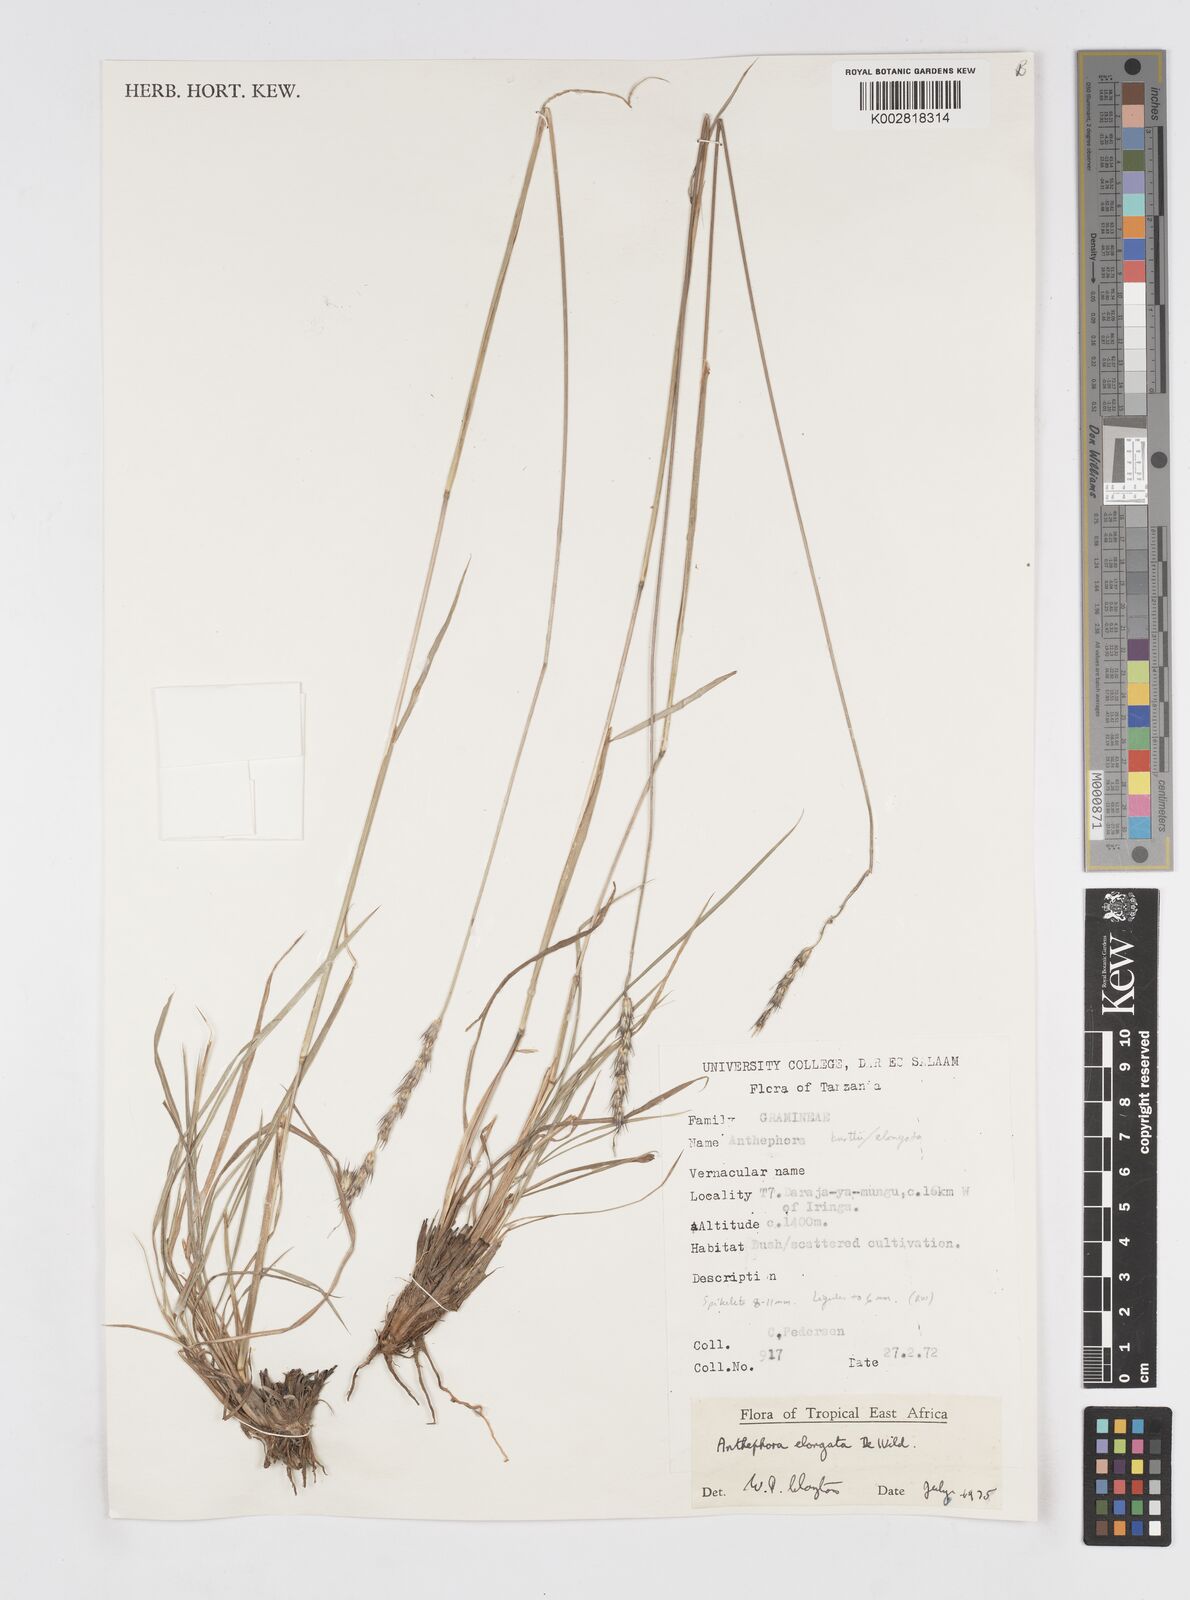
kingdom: Plantae
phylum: Tracheophyta
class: Liliopsida
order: Poales
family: Poaceae
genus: Anthephora
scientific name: Anthephora elongata
